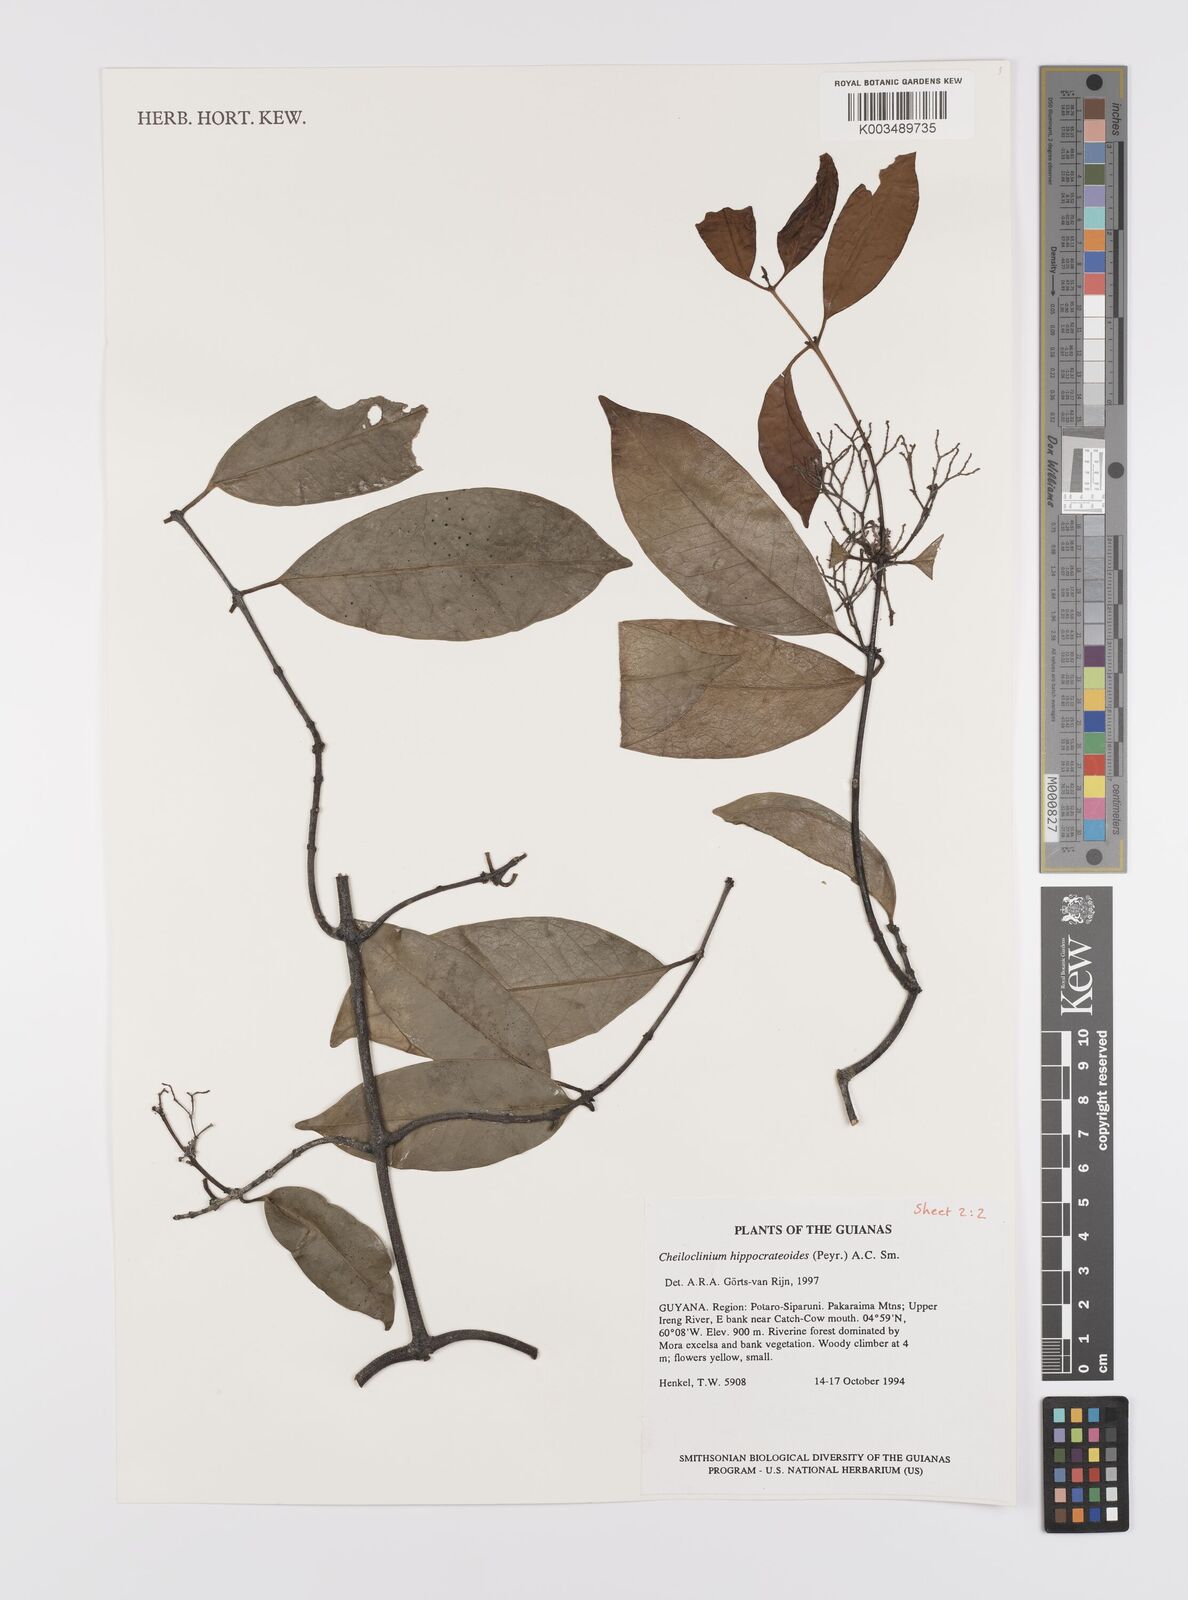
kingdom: Plantae
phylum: Tracheophyta
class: Magnoliopsida
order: Celastrales
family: Celastraceae
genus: Cheiloclinium
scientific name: Cheiloclinium hippocrateoides
